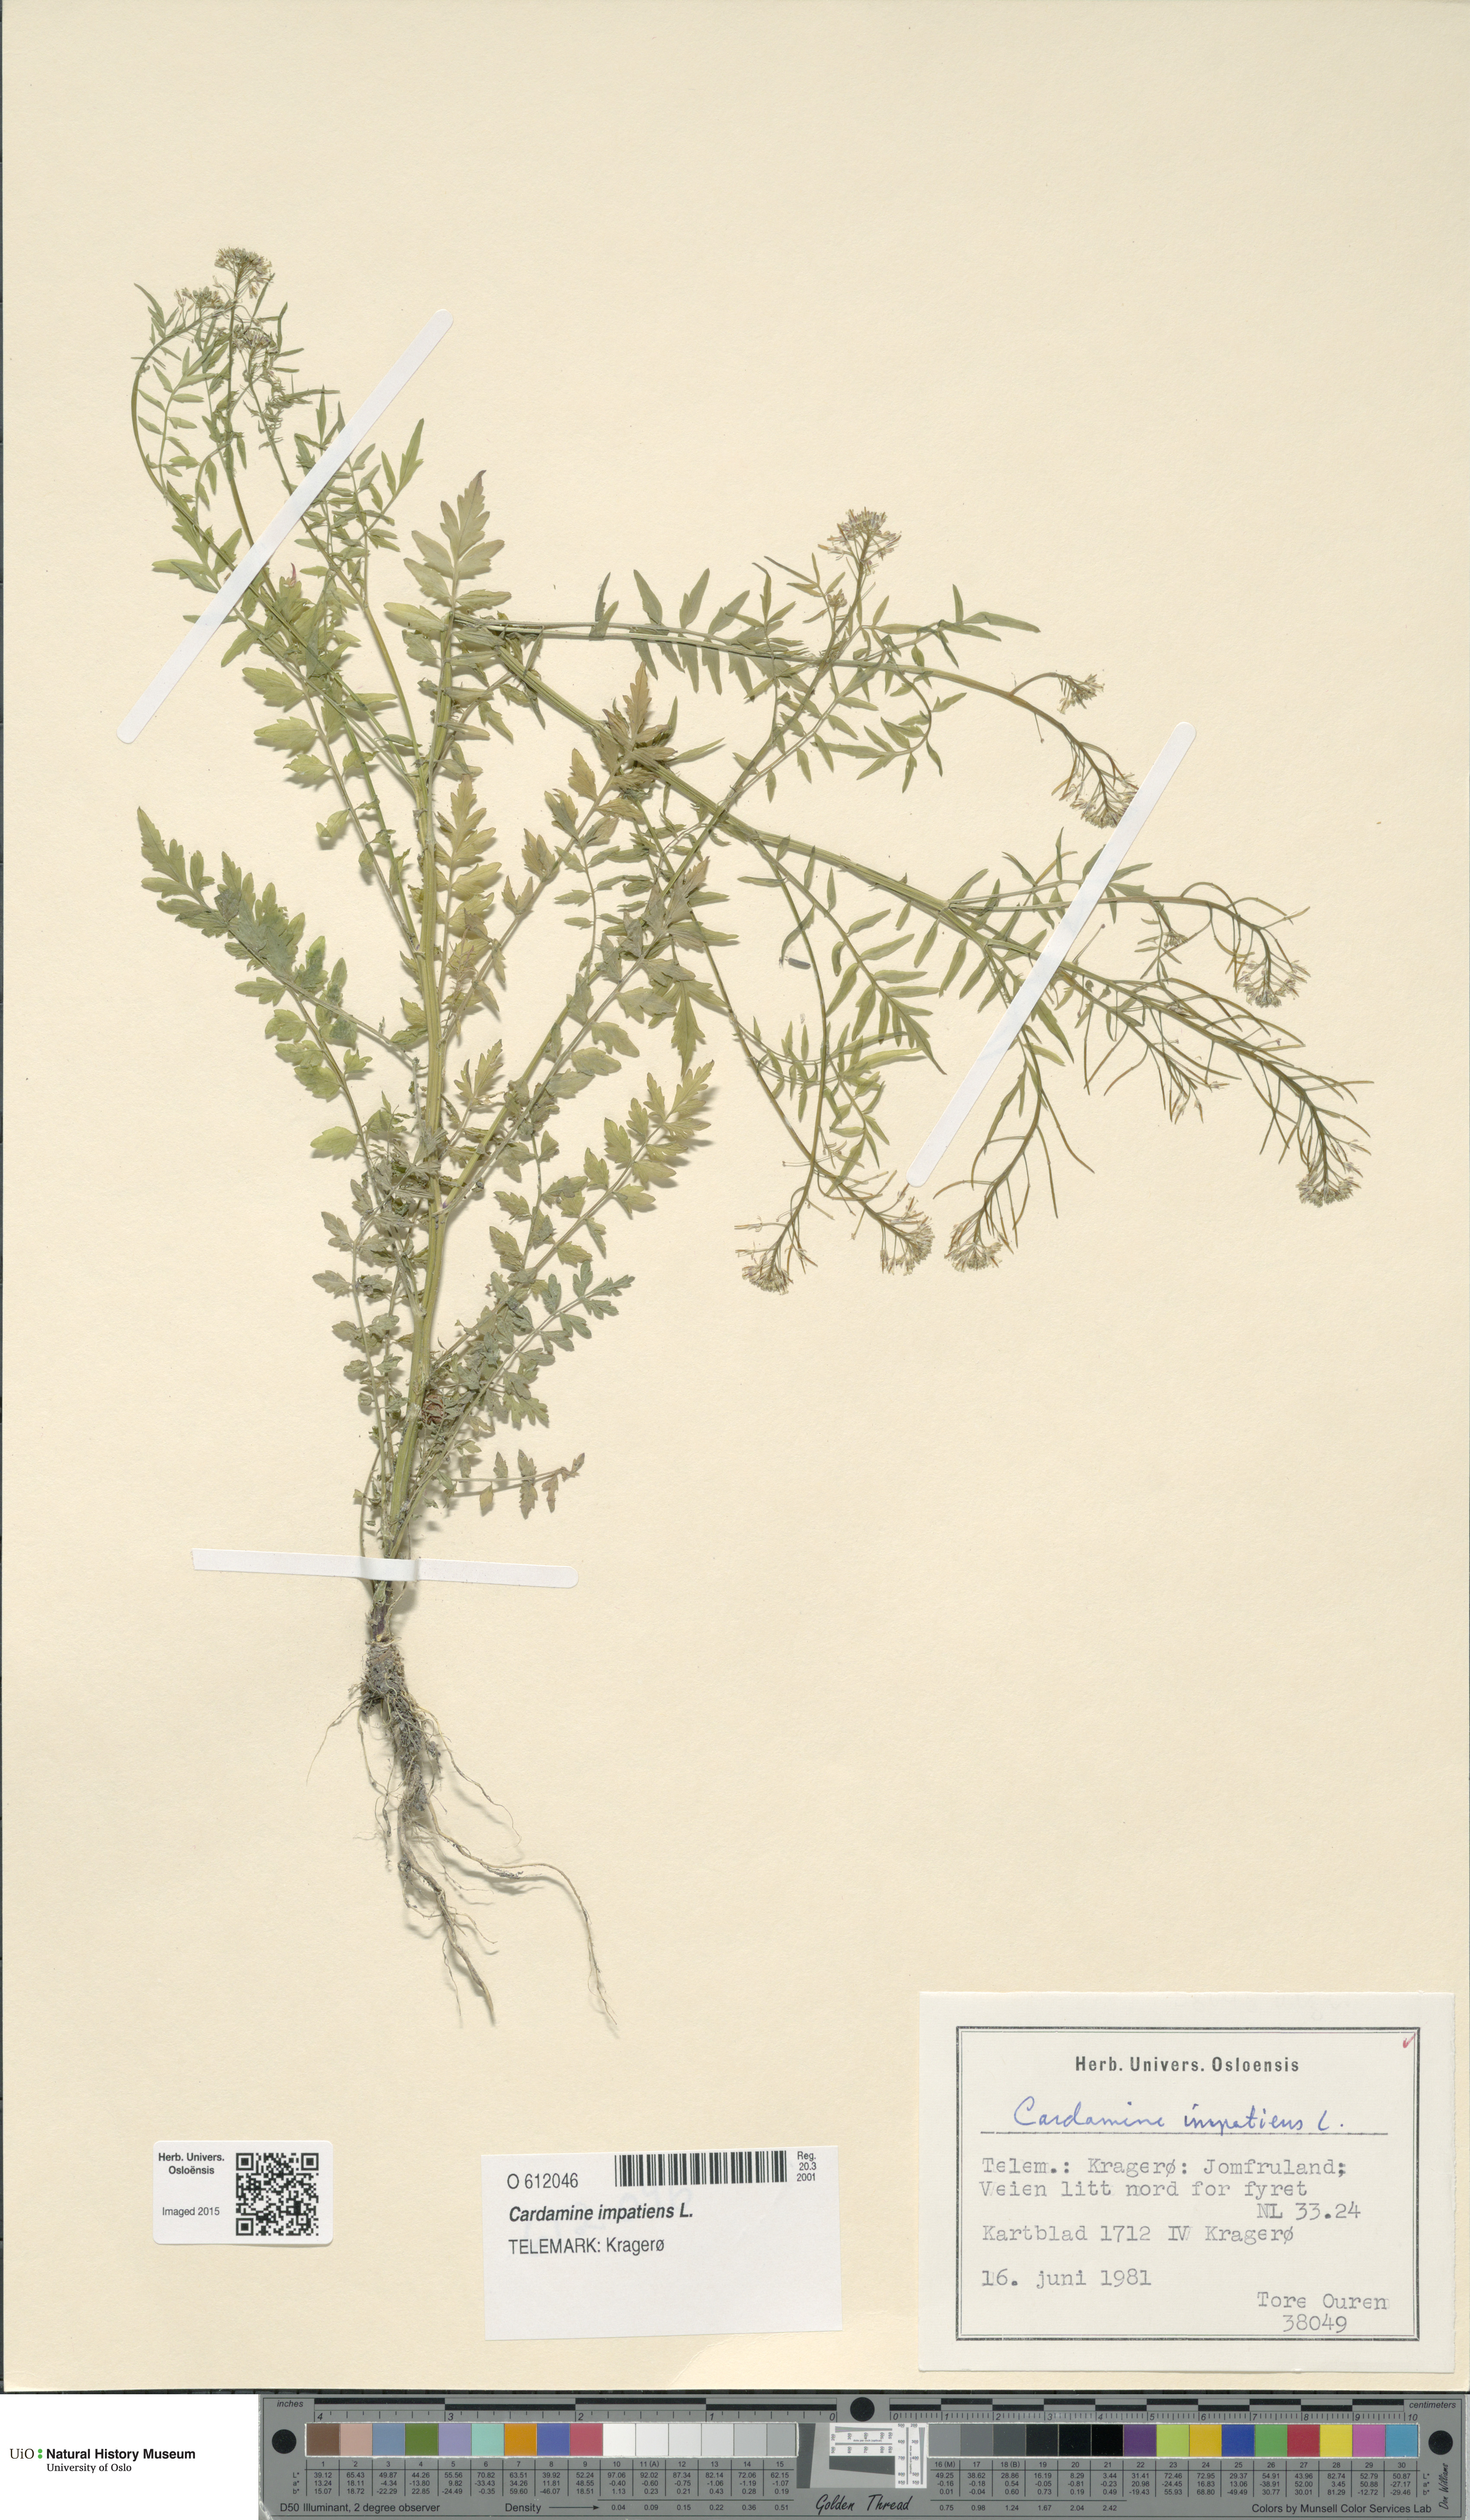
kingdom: Plantae
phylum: Tracheophyta
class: Magnoliopsida
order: Brassicales
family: Brassicaceae
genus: Cardamine
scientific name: Cardamine impatiens
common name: Narrow-leaved bitter-cress
